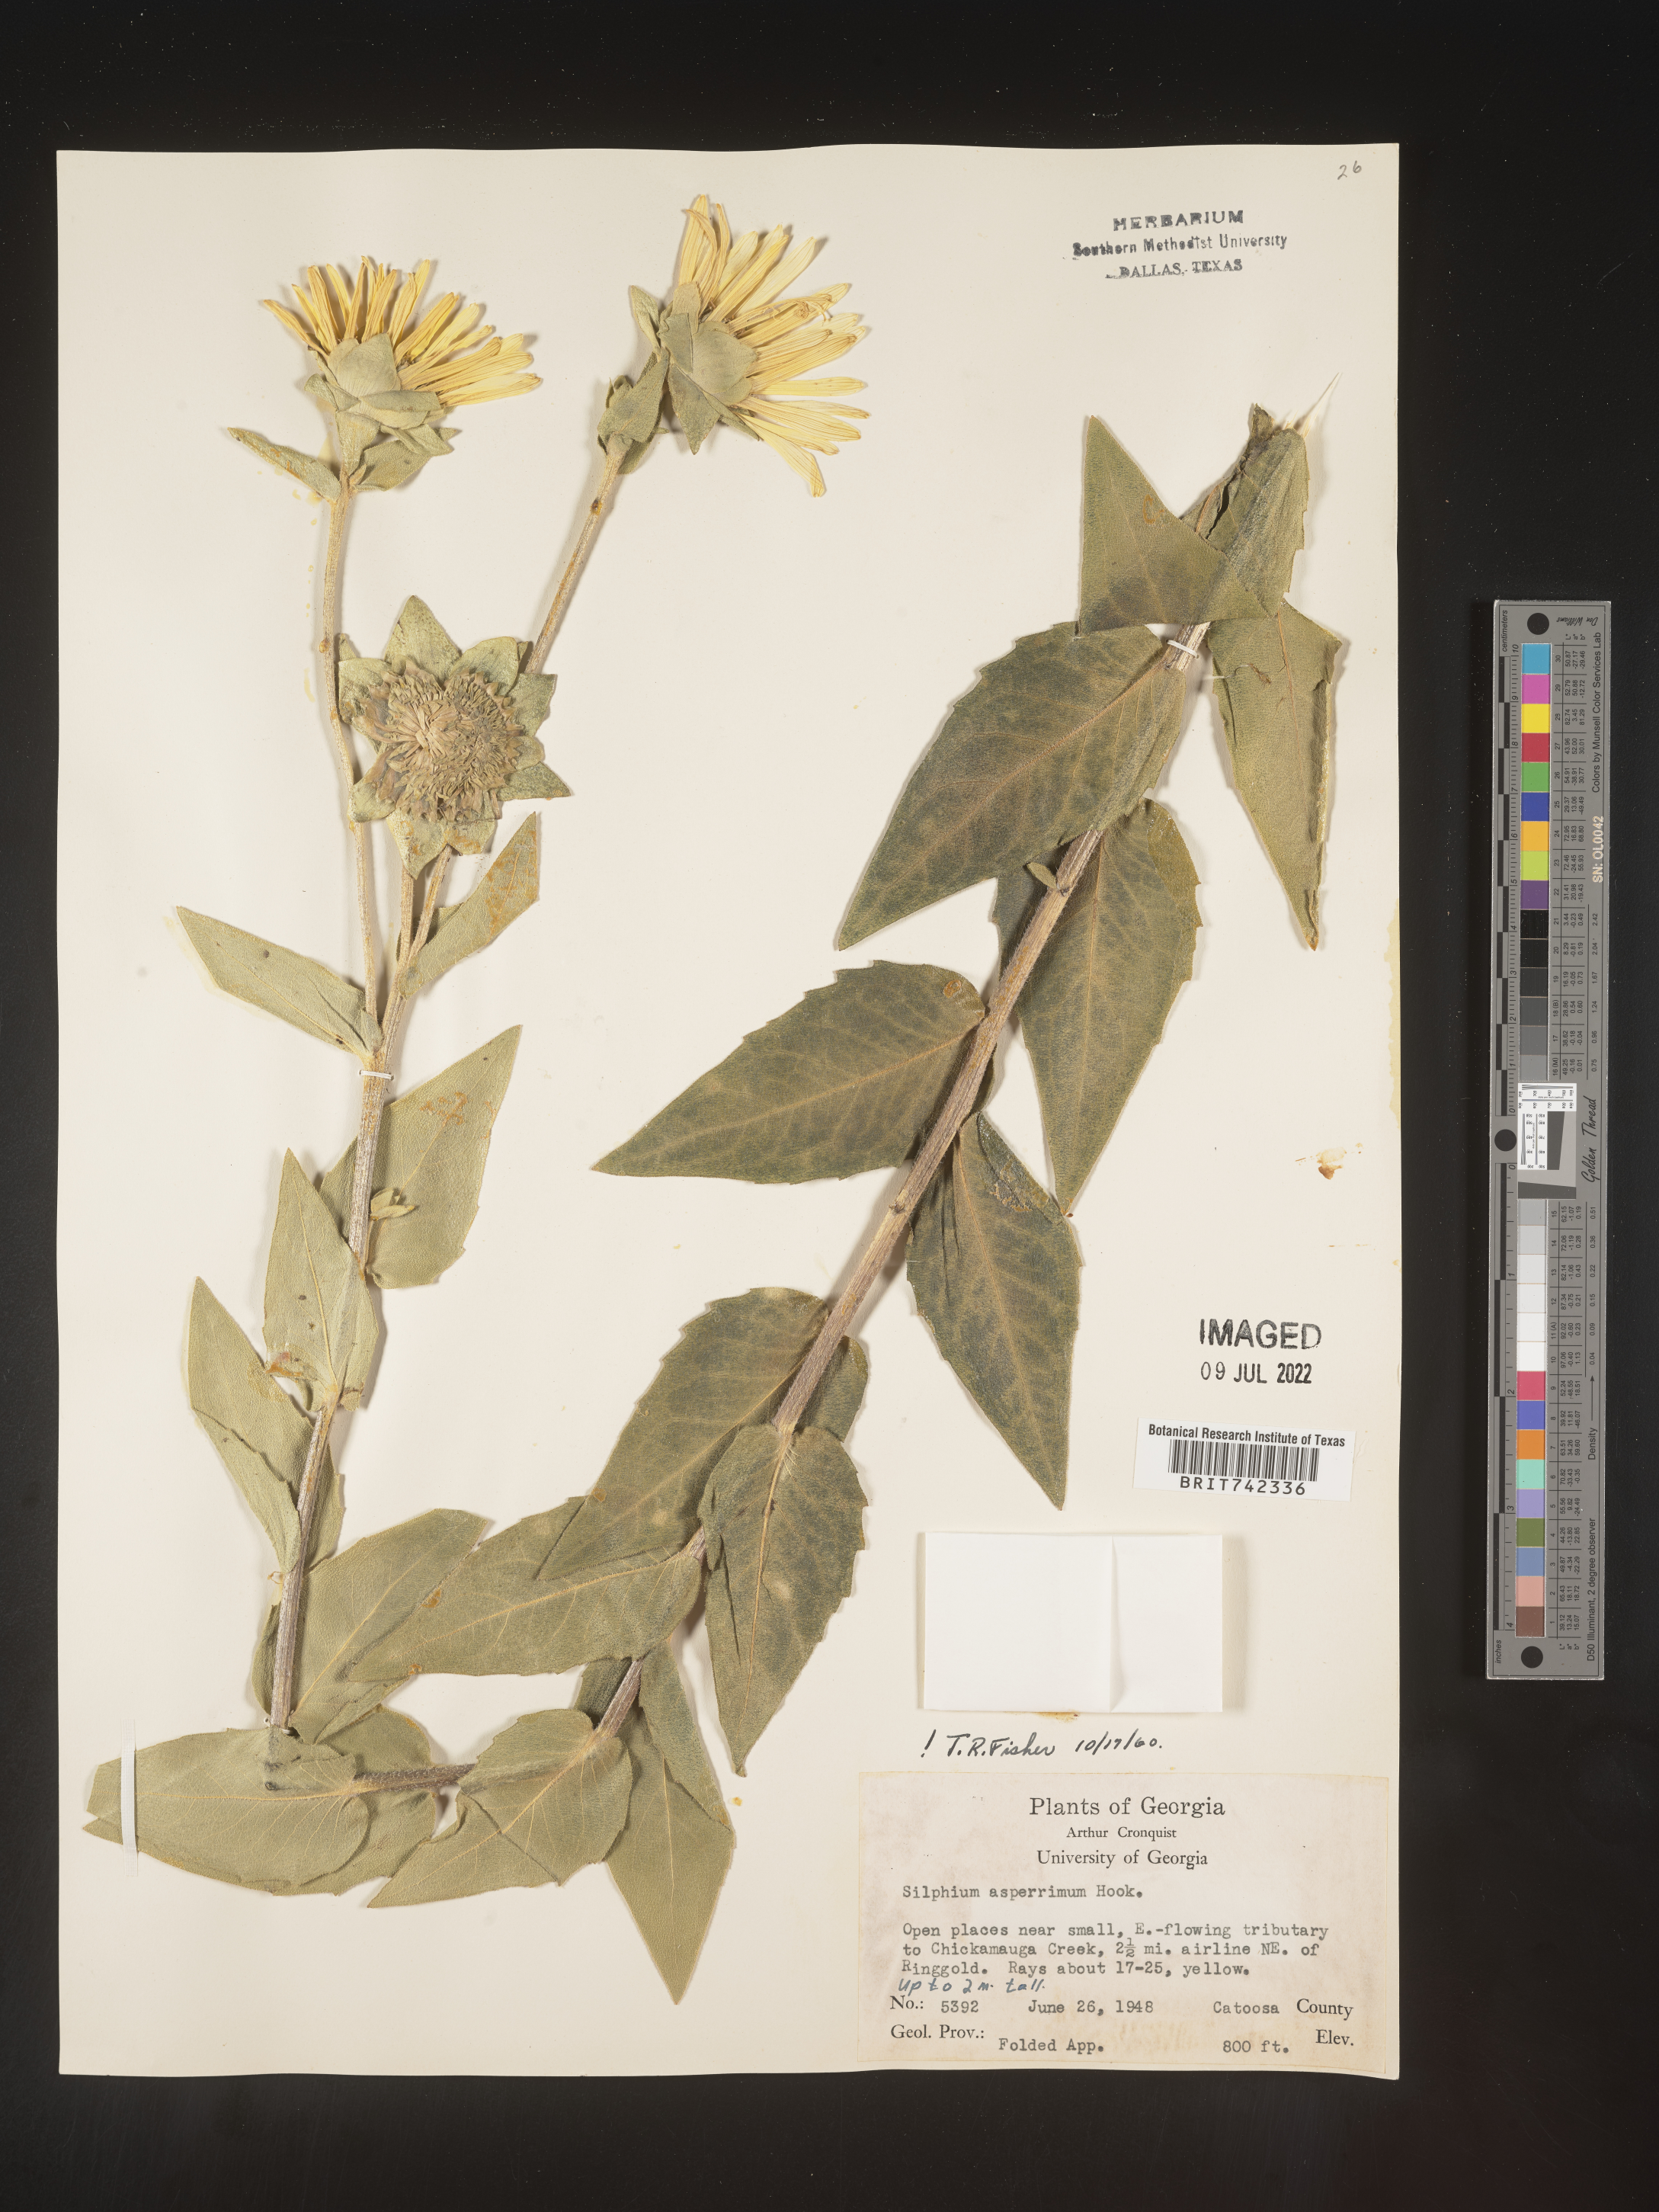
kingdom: Plantae
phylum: Tracheophyta
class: Magnoliopsida
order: Asterales
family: Asteraceae
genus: Silphium
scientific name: Silphium mohrii
